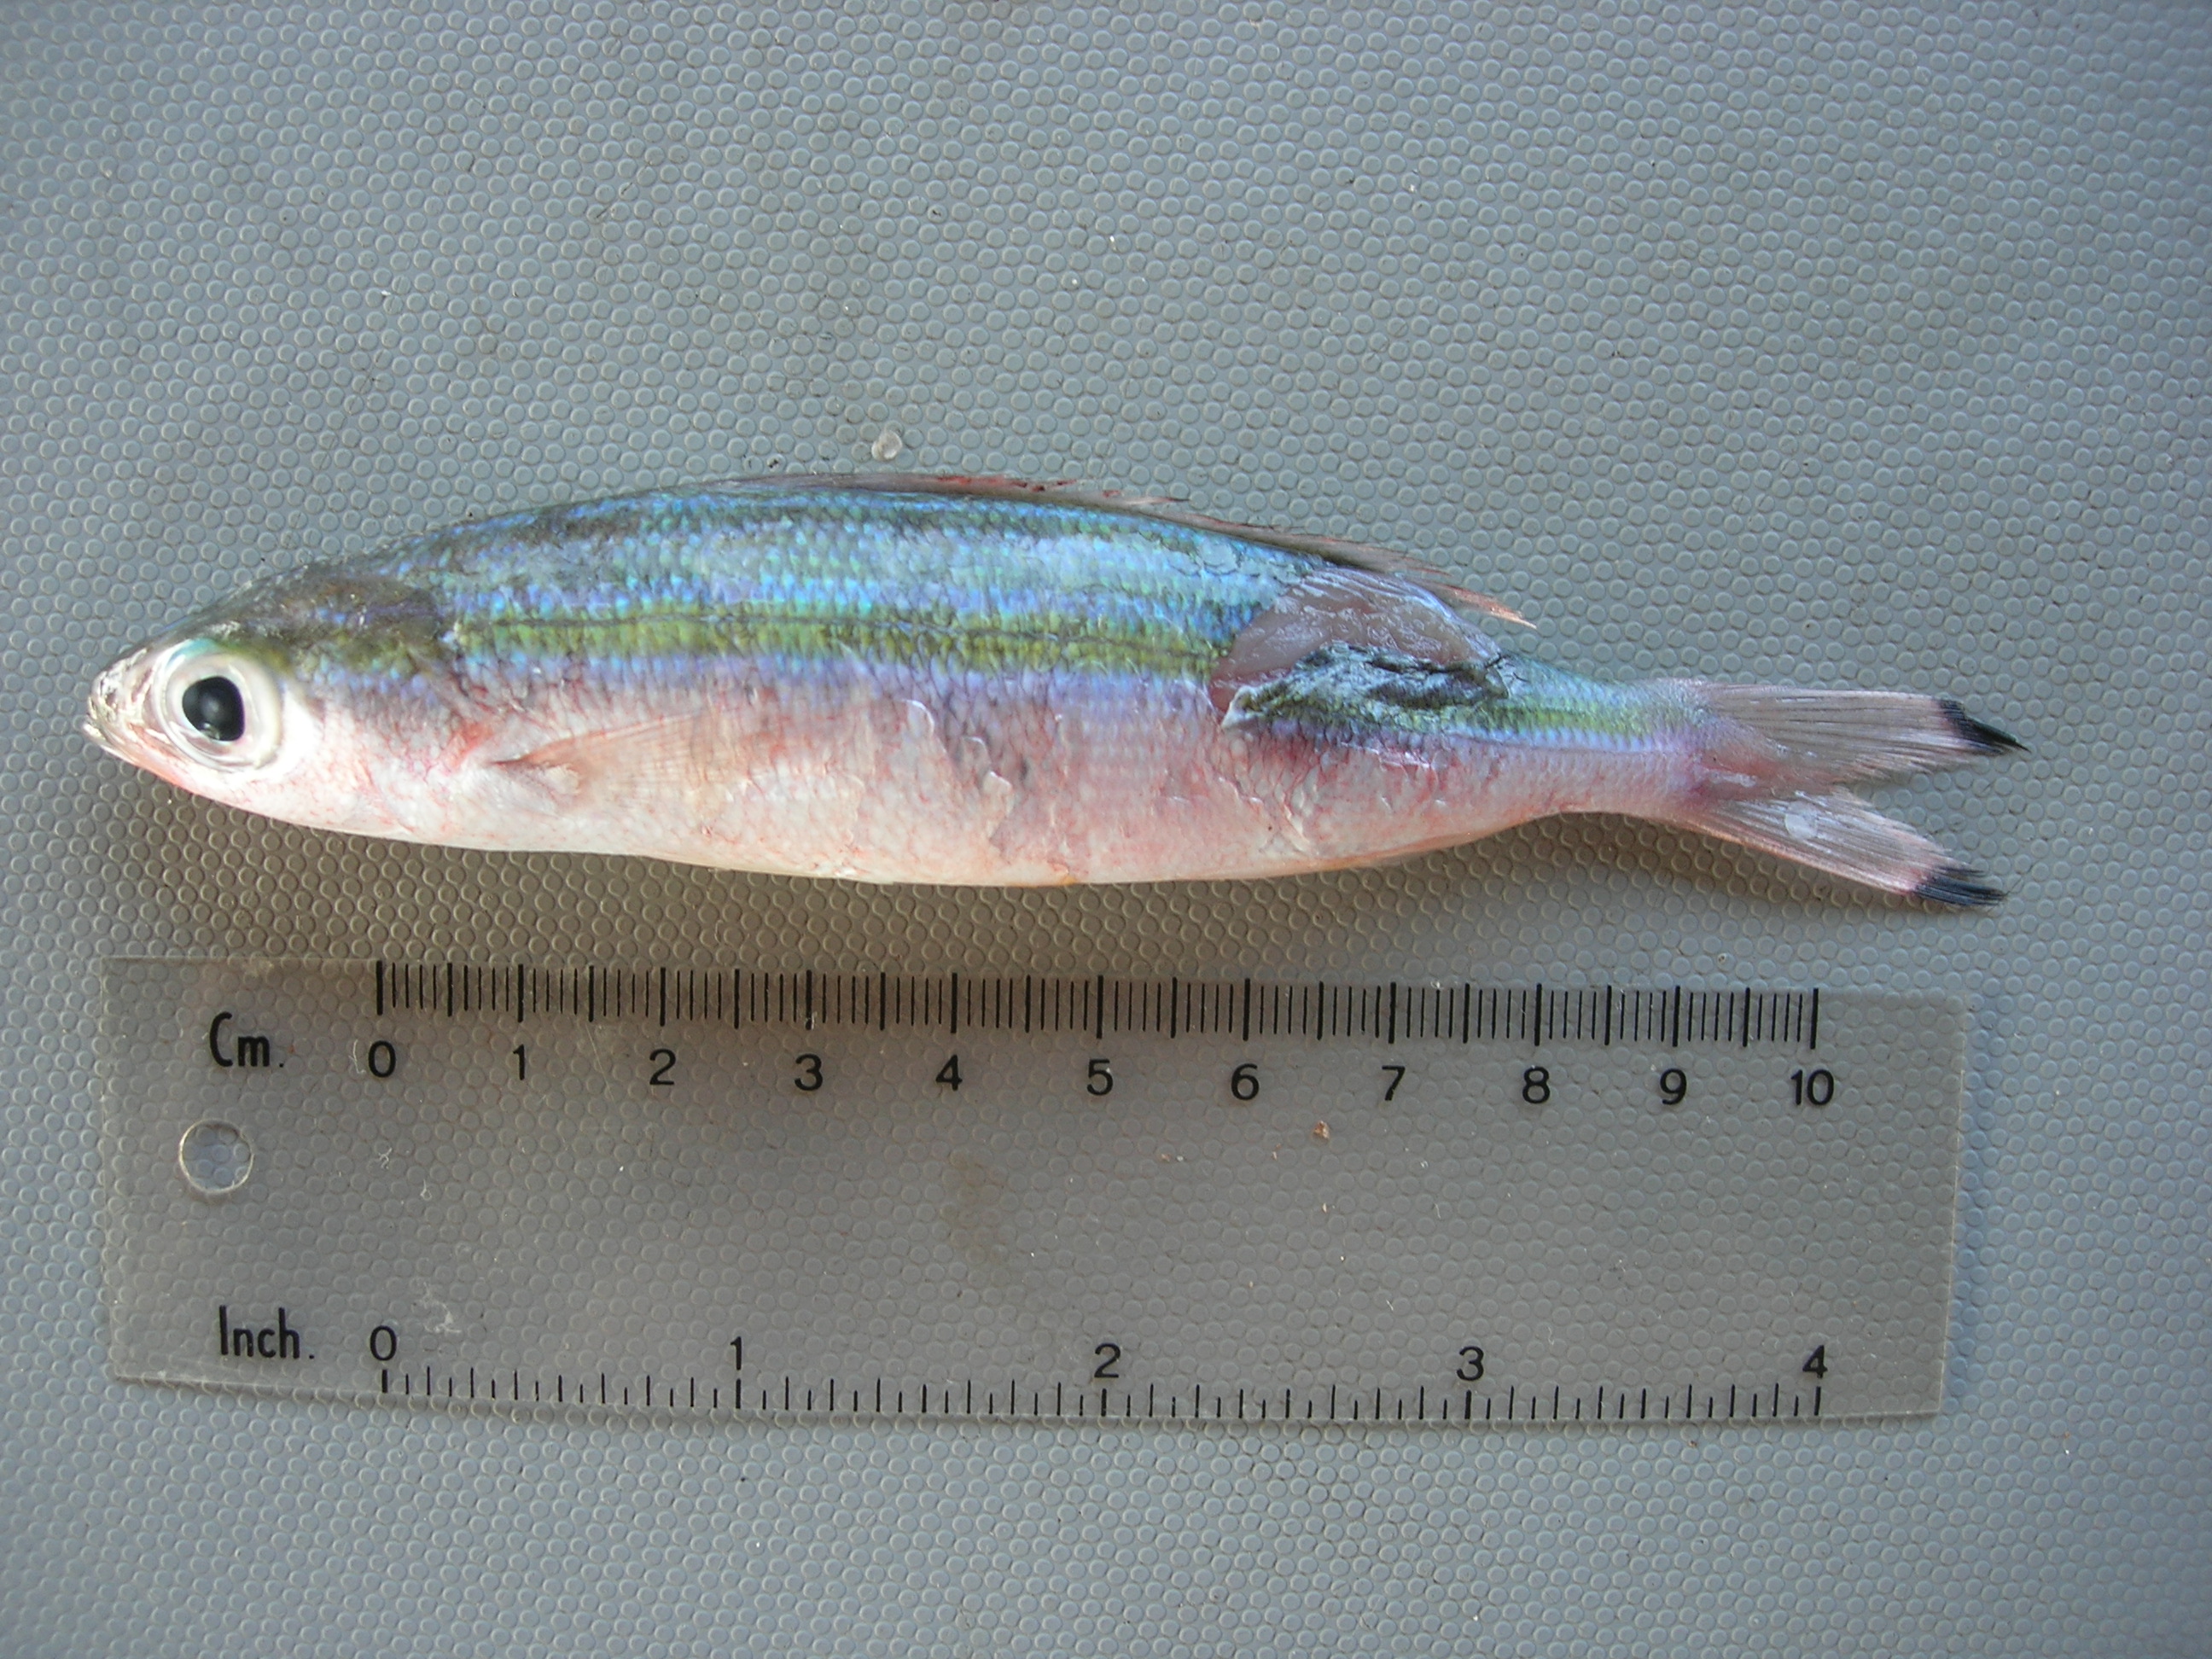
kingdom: Animalia
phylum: Chordata
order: Perciformes
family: Caesionidae
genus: Pterocaesio
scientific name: Pterocaesio trilineata
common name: Striped fusilier
